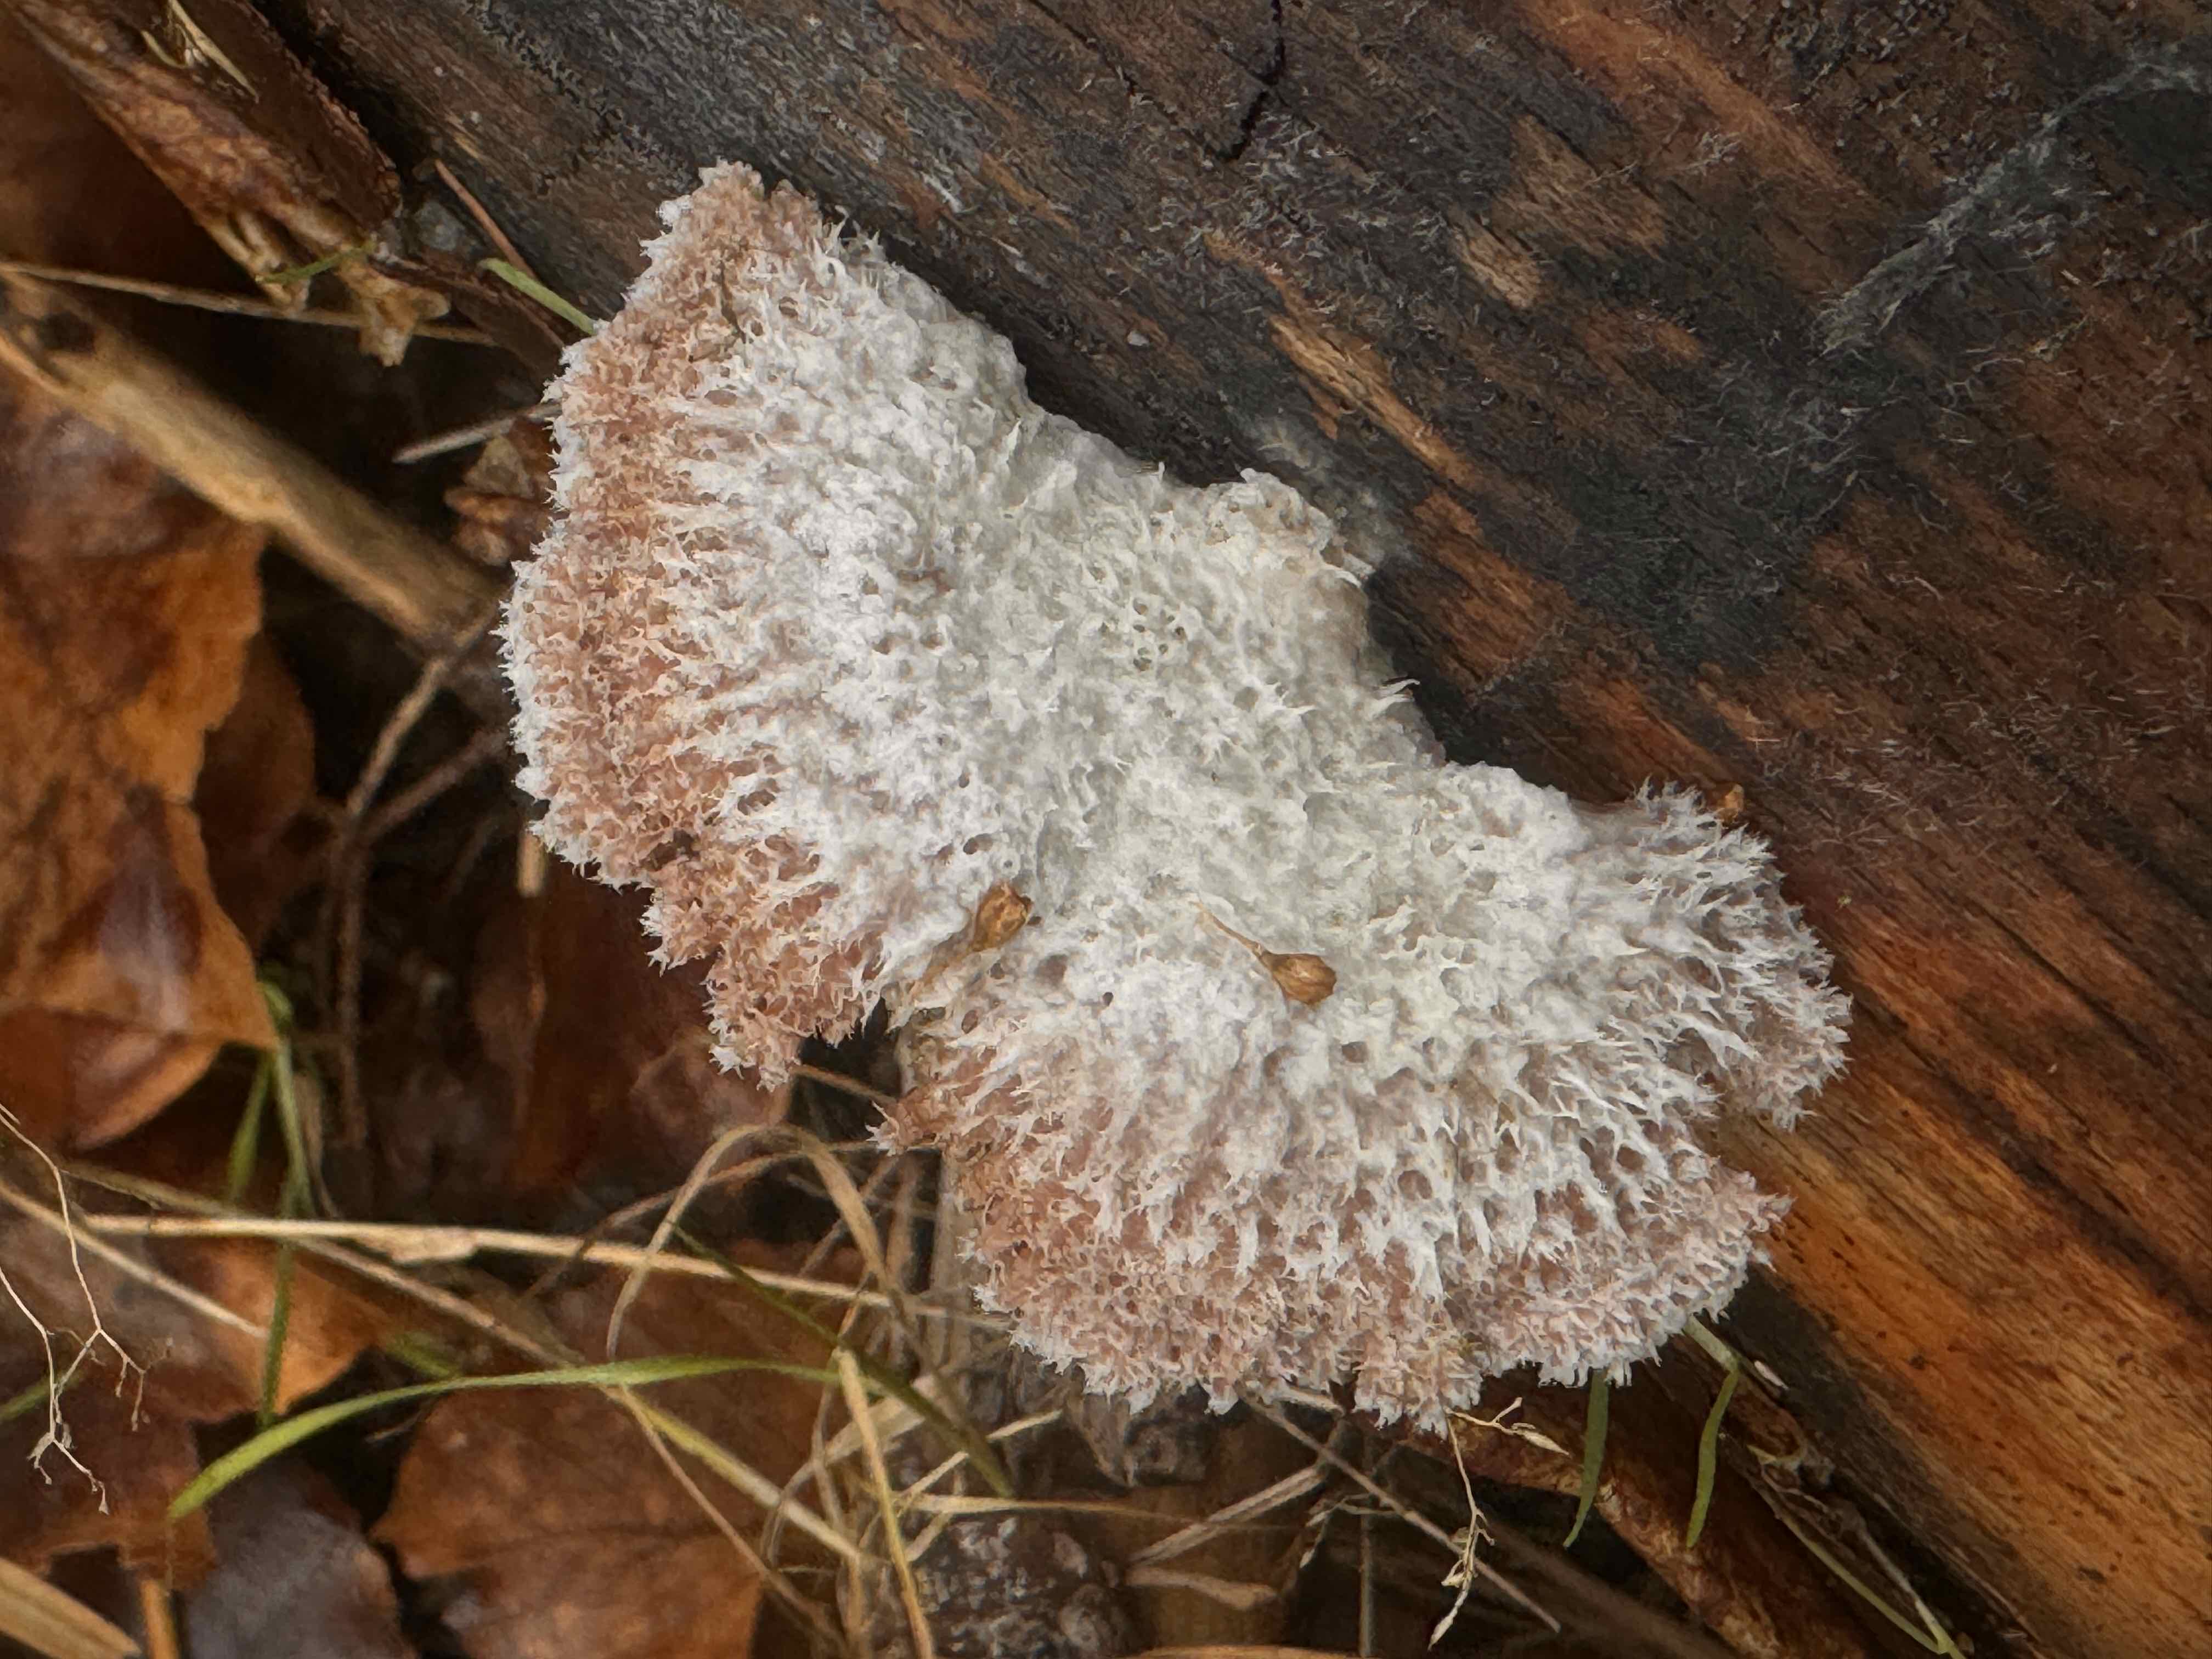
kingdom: Fungi
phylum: Basidiomycota
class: Agaricomycetes
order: Agaricales
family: Schizophyllaceae
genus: Schizophyllum
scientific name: Schizophyllum commune
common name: kløvblad
